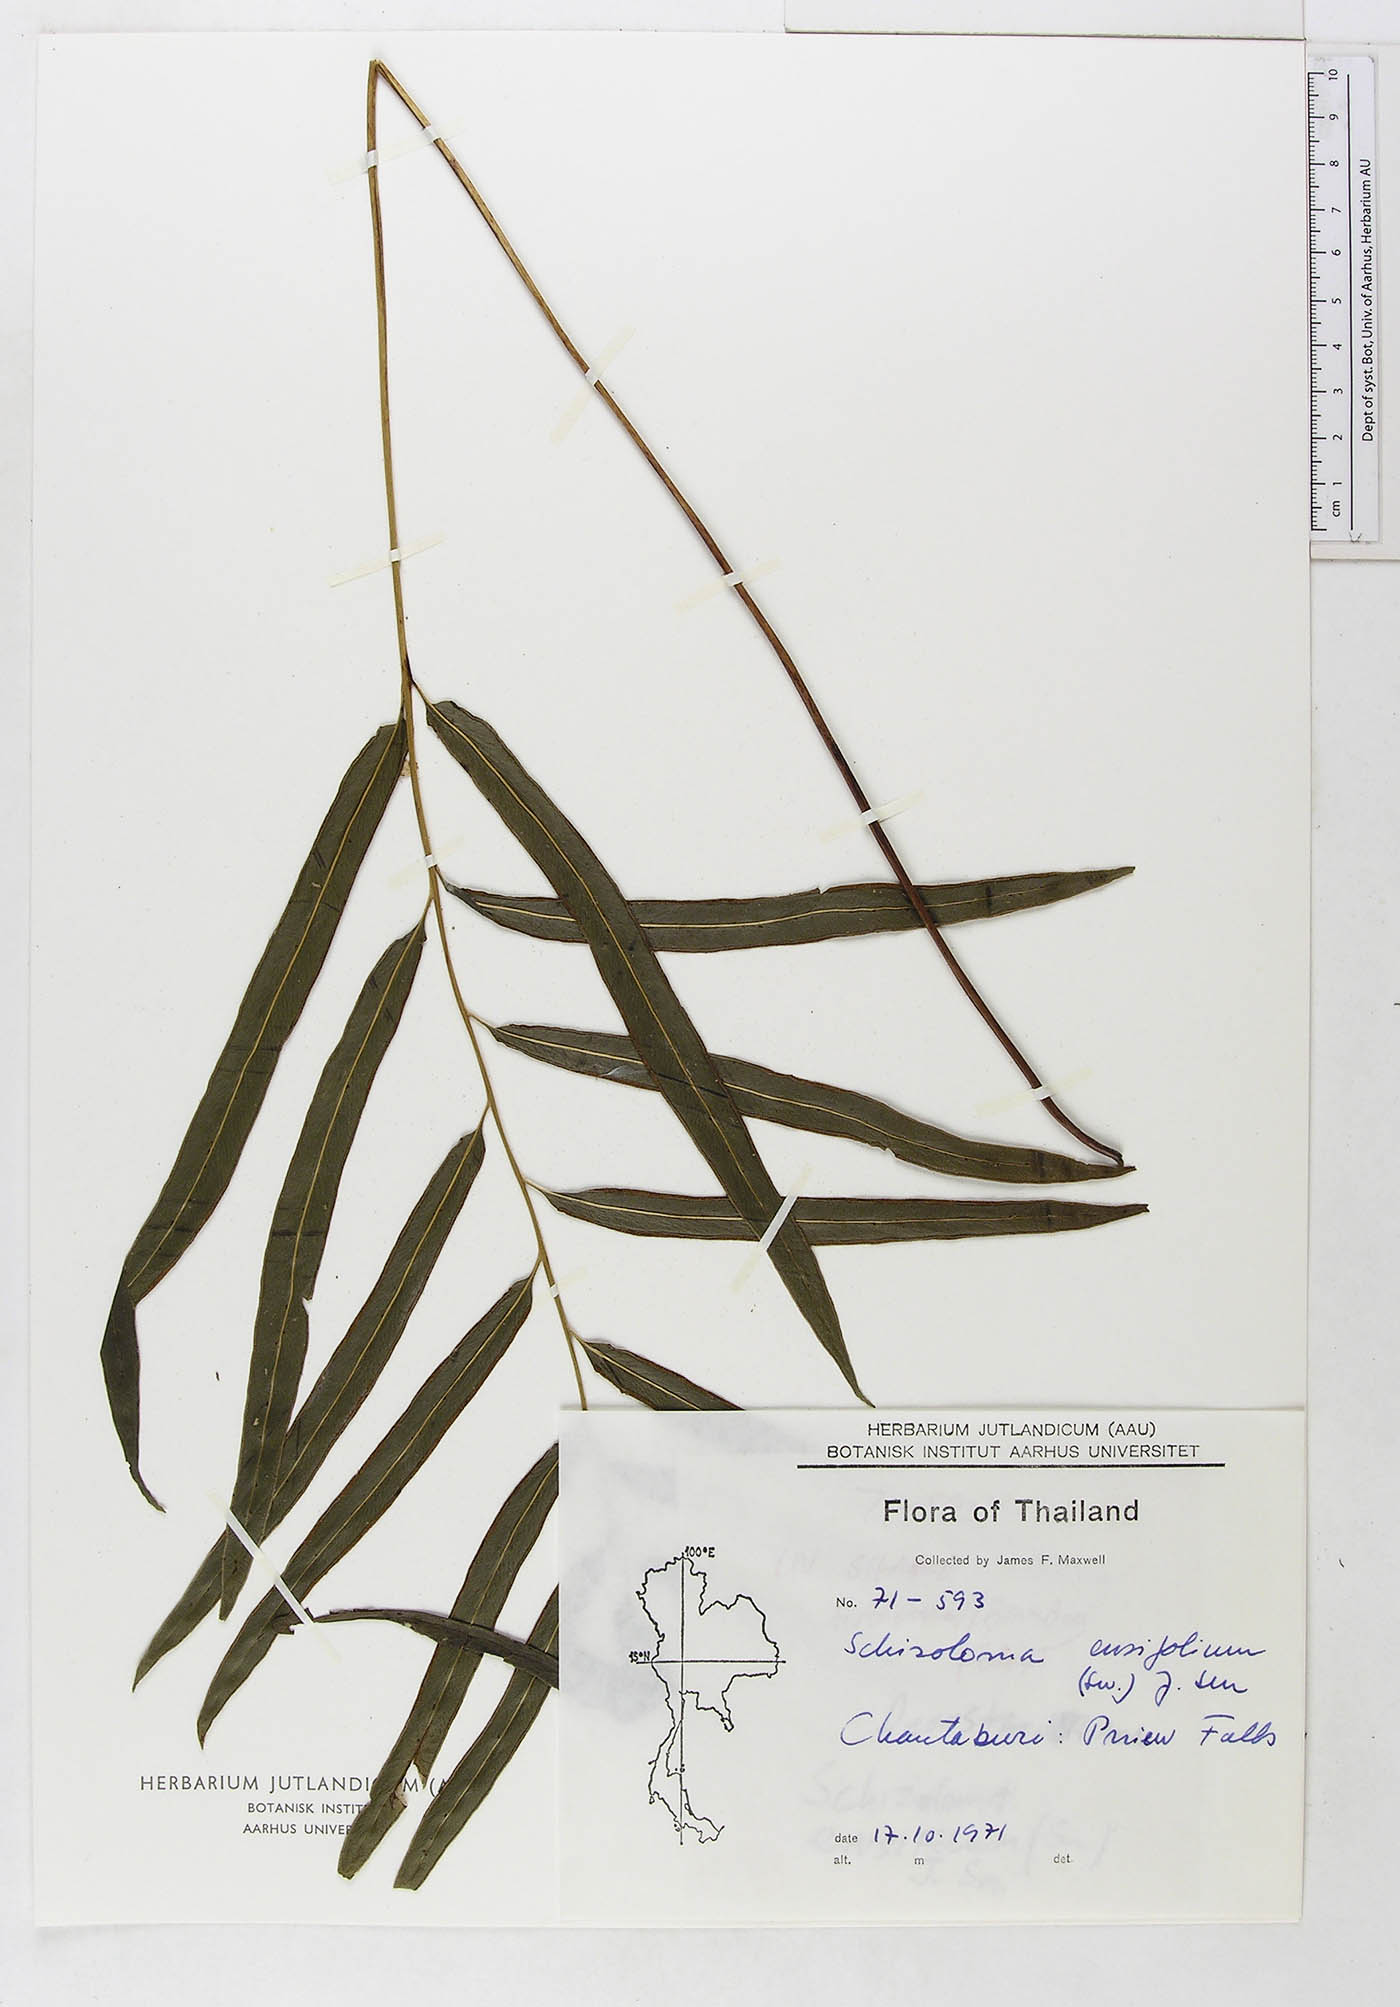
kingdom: Plantae
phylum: Tracheophyta
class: Polypodiopsida
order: Polypodiales
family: Lindsaeaceae
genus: Lindsaea
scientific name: Lindsaea ensifolia
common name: Graceful necklace fern
